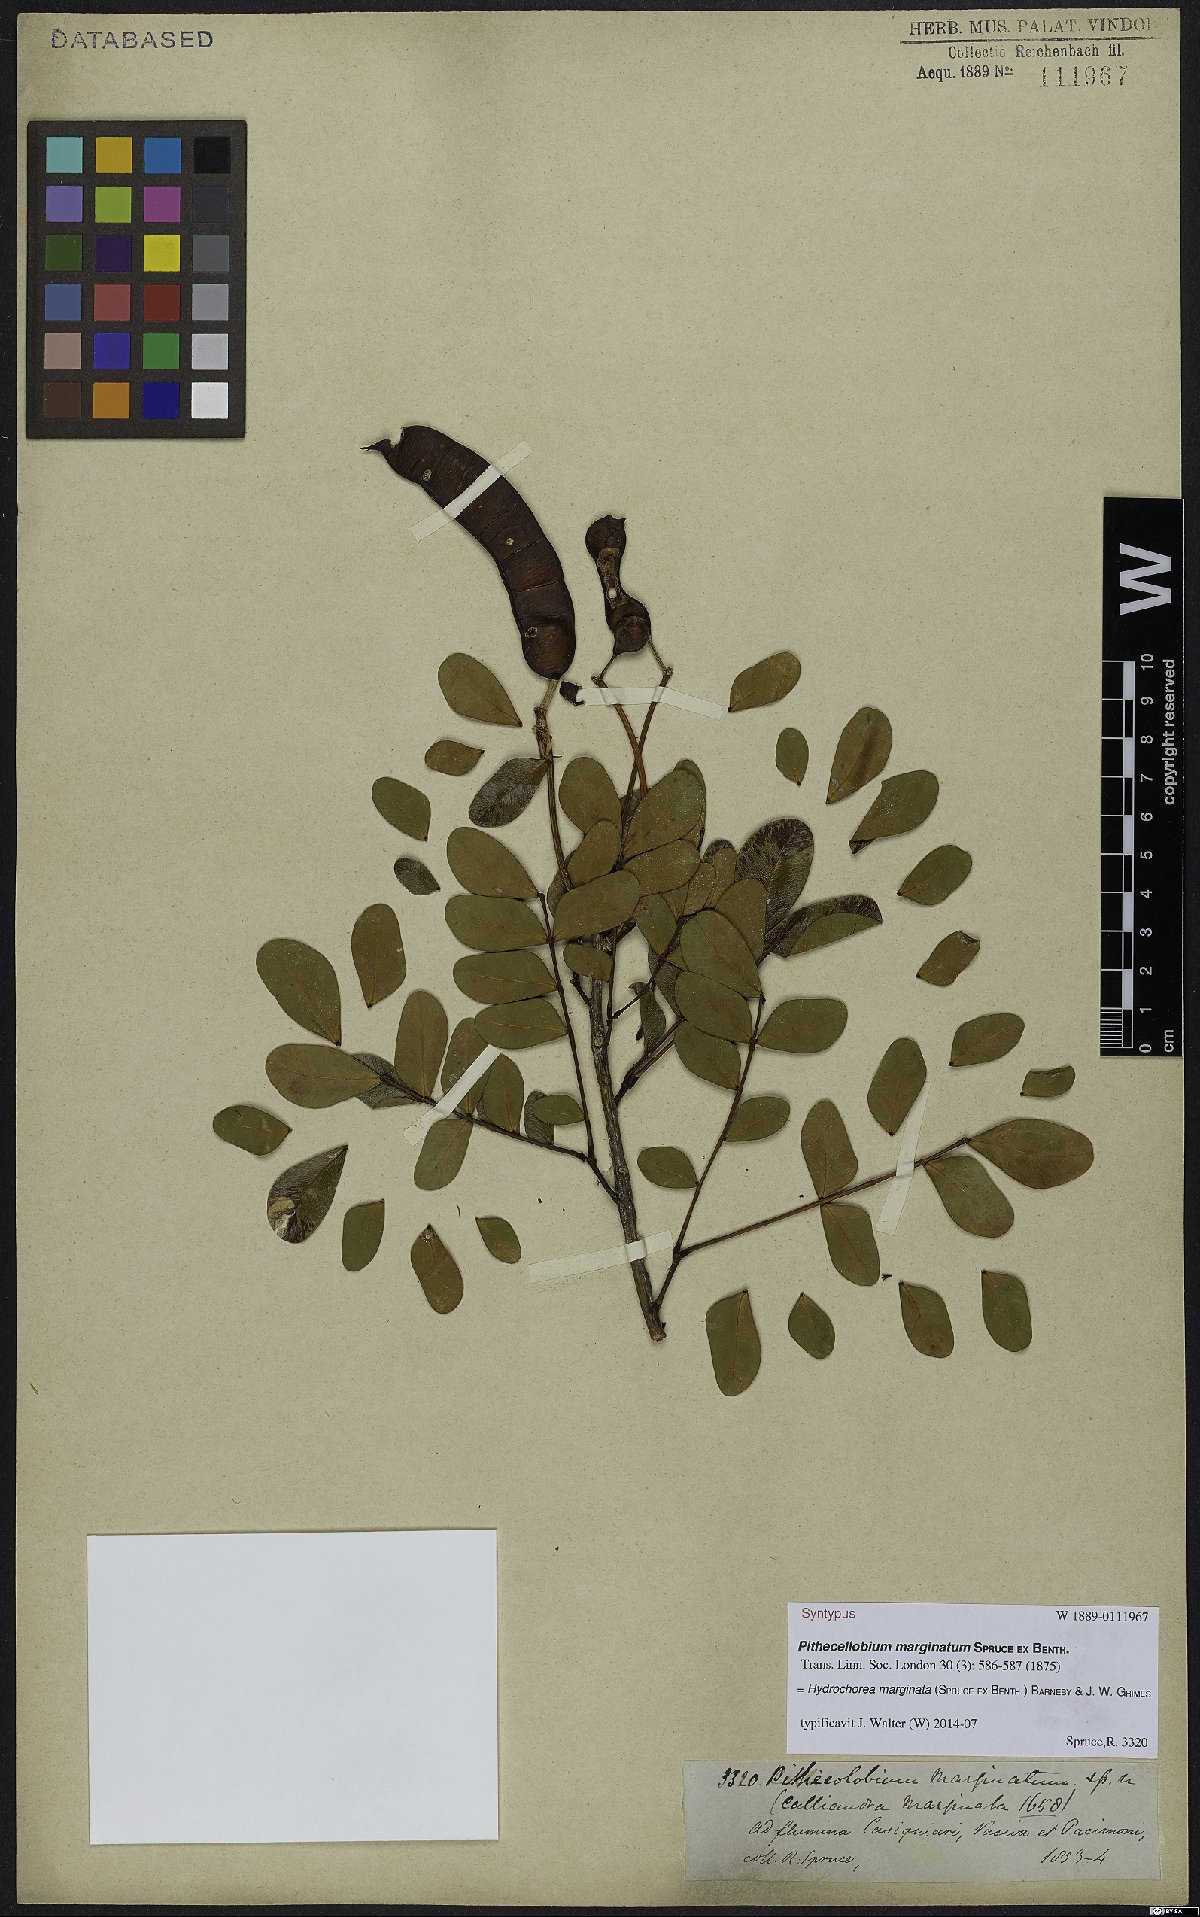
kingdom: Plantae
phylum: Tracheophyta
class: Magnoliopsida
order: Fabales
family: Fabaceae
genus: Hydrochorea
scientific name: Hydrochorea marginata
